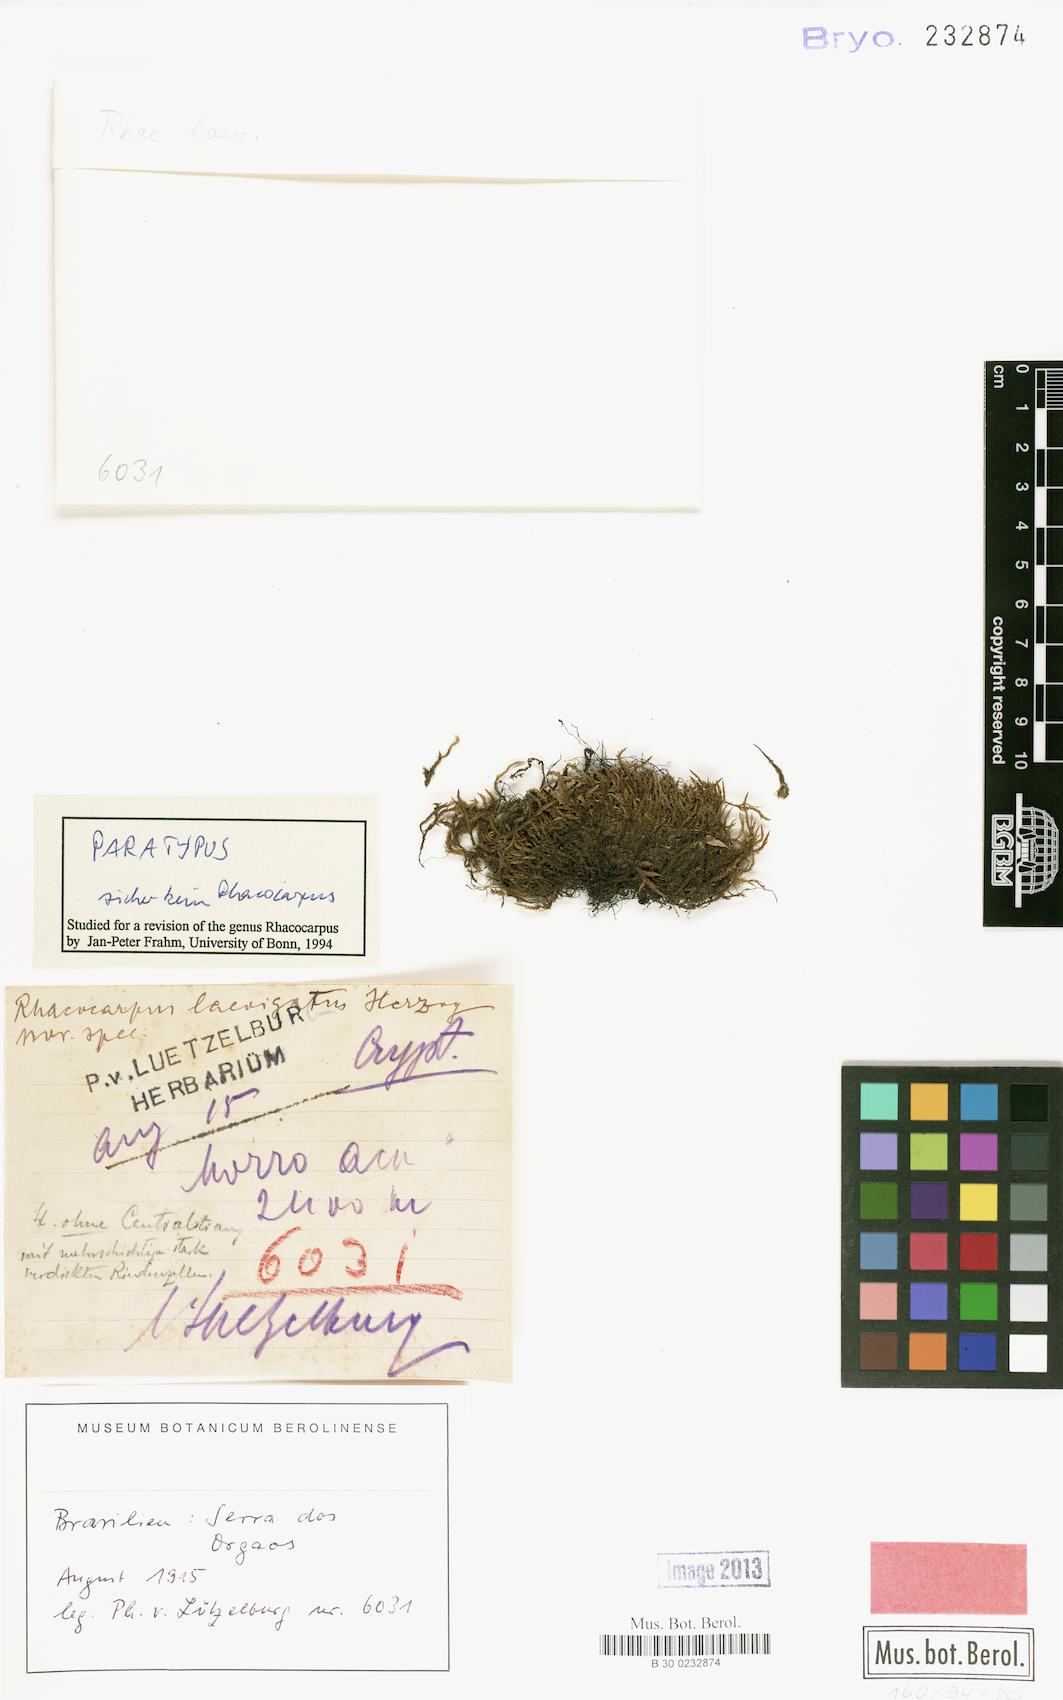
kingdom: Plantae
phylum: Bryophyta
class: Bryopsida
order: Hypnales
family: Sematophyllaceae
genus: Kuerschneria
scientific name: Kuerschneria laevigata
